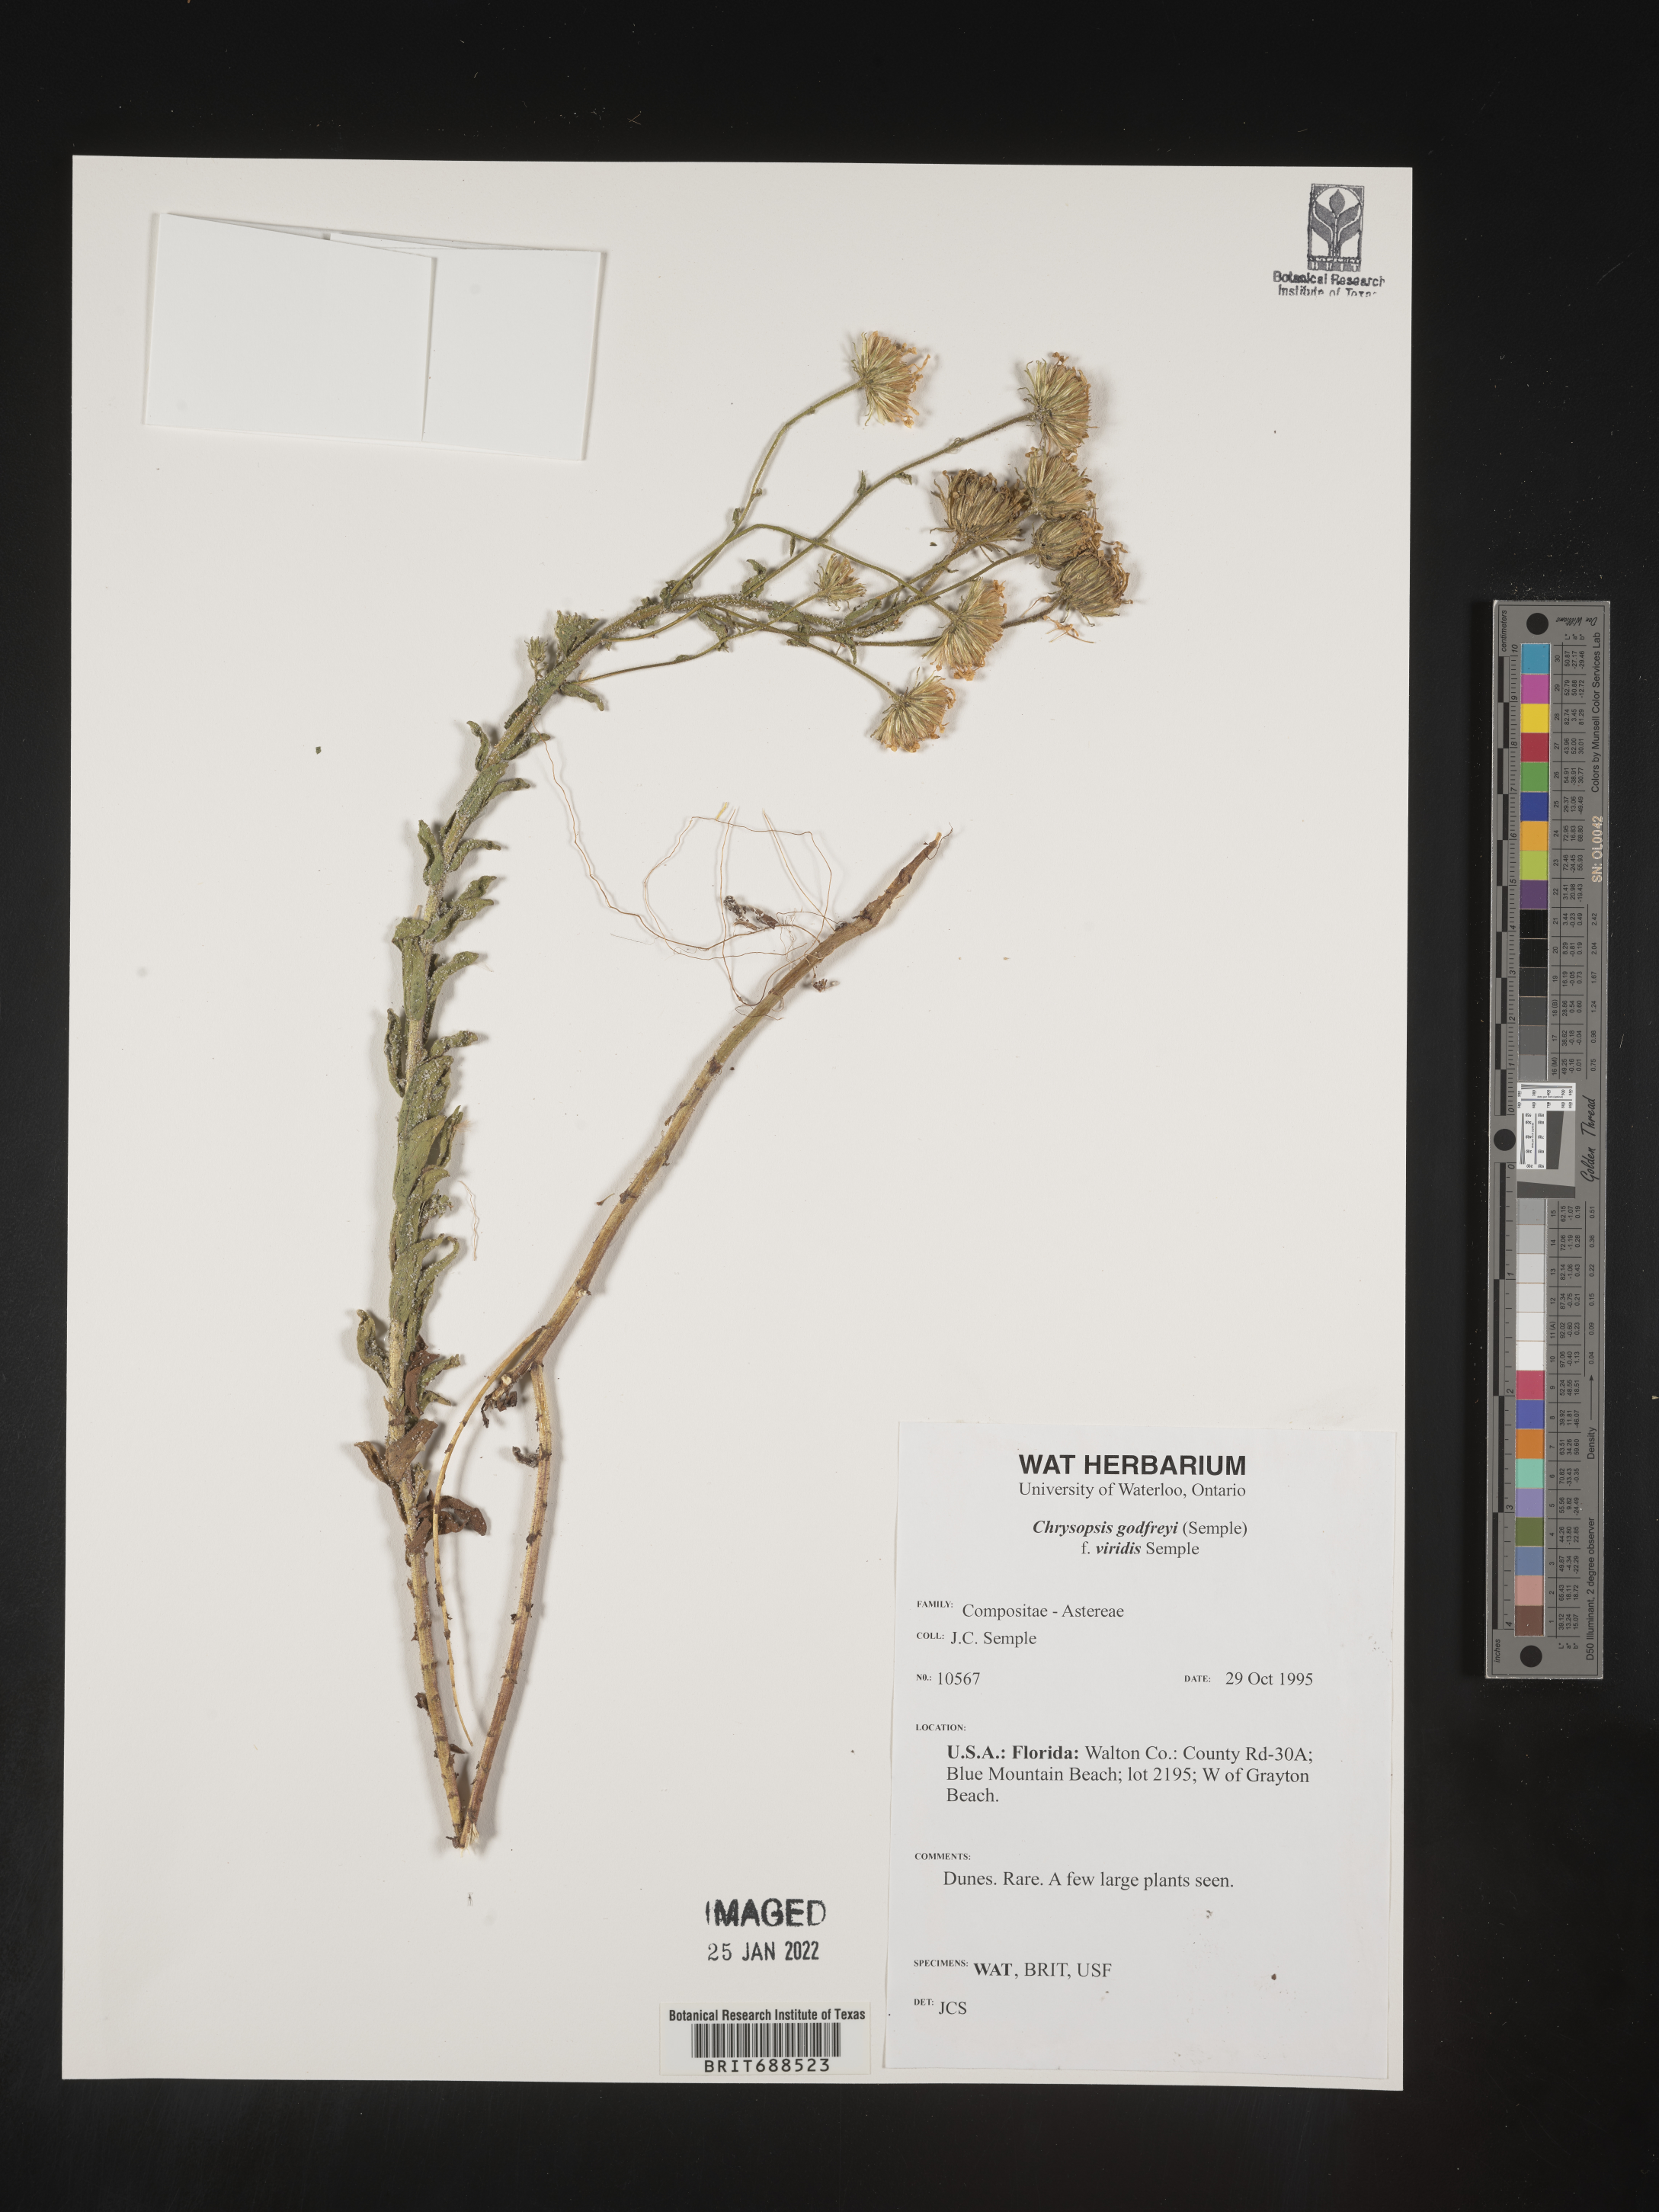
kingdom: Plantae
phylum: Tracheophyta
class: Magnoliopsida
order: Asterales
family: Asteraceae
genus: Chrysopsis
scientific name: Chrysopsis godfreyi
